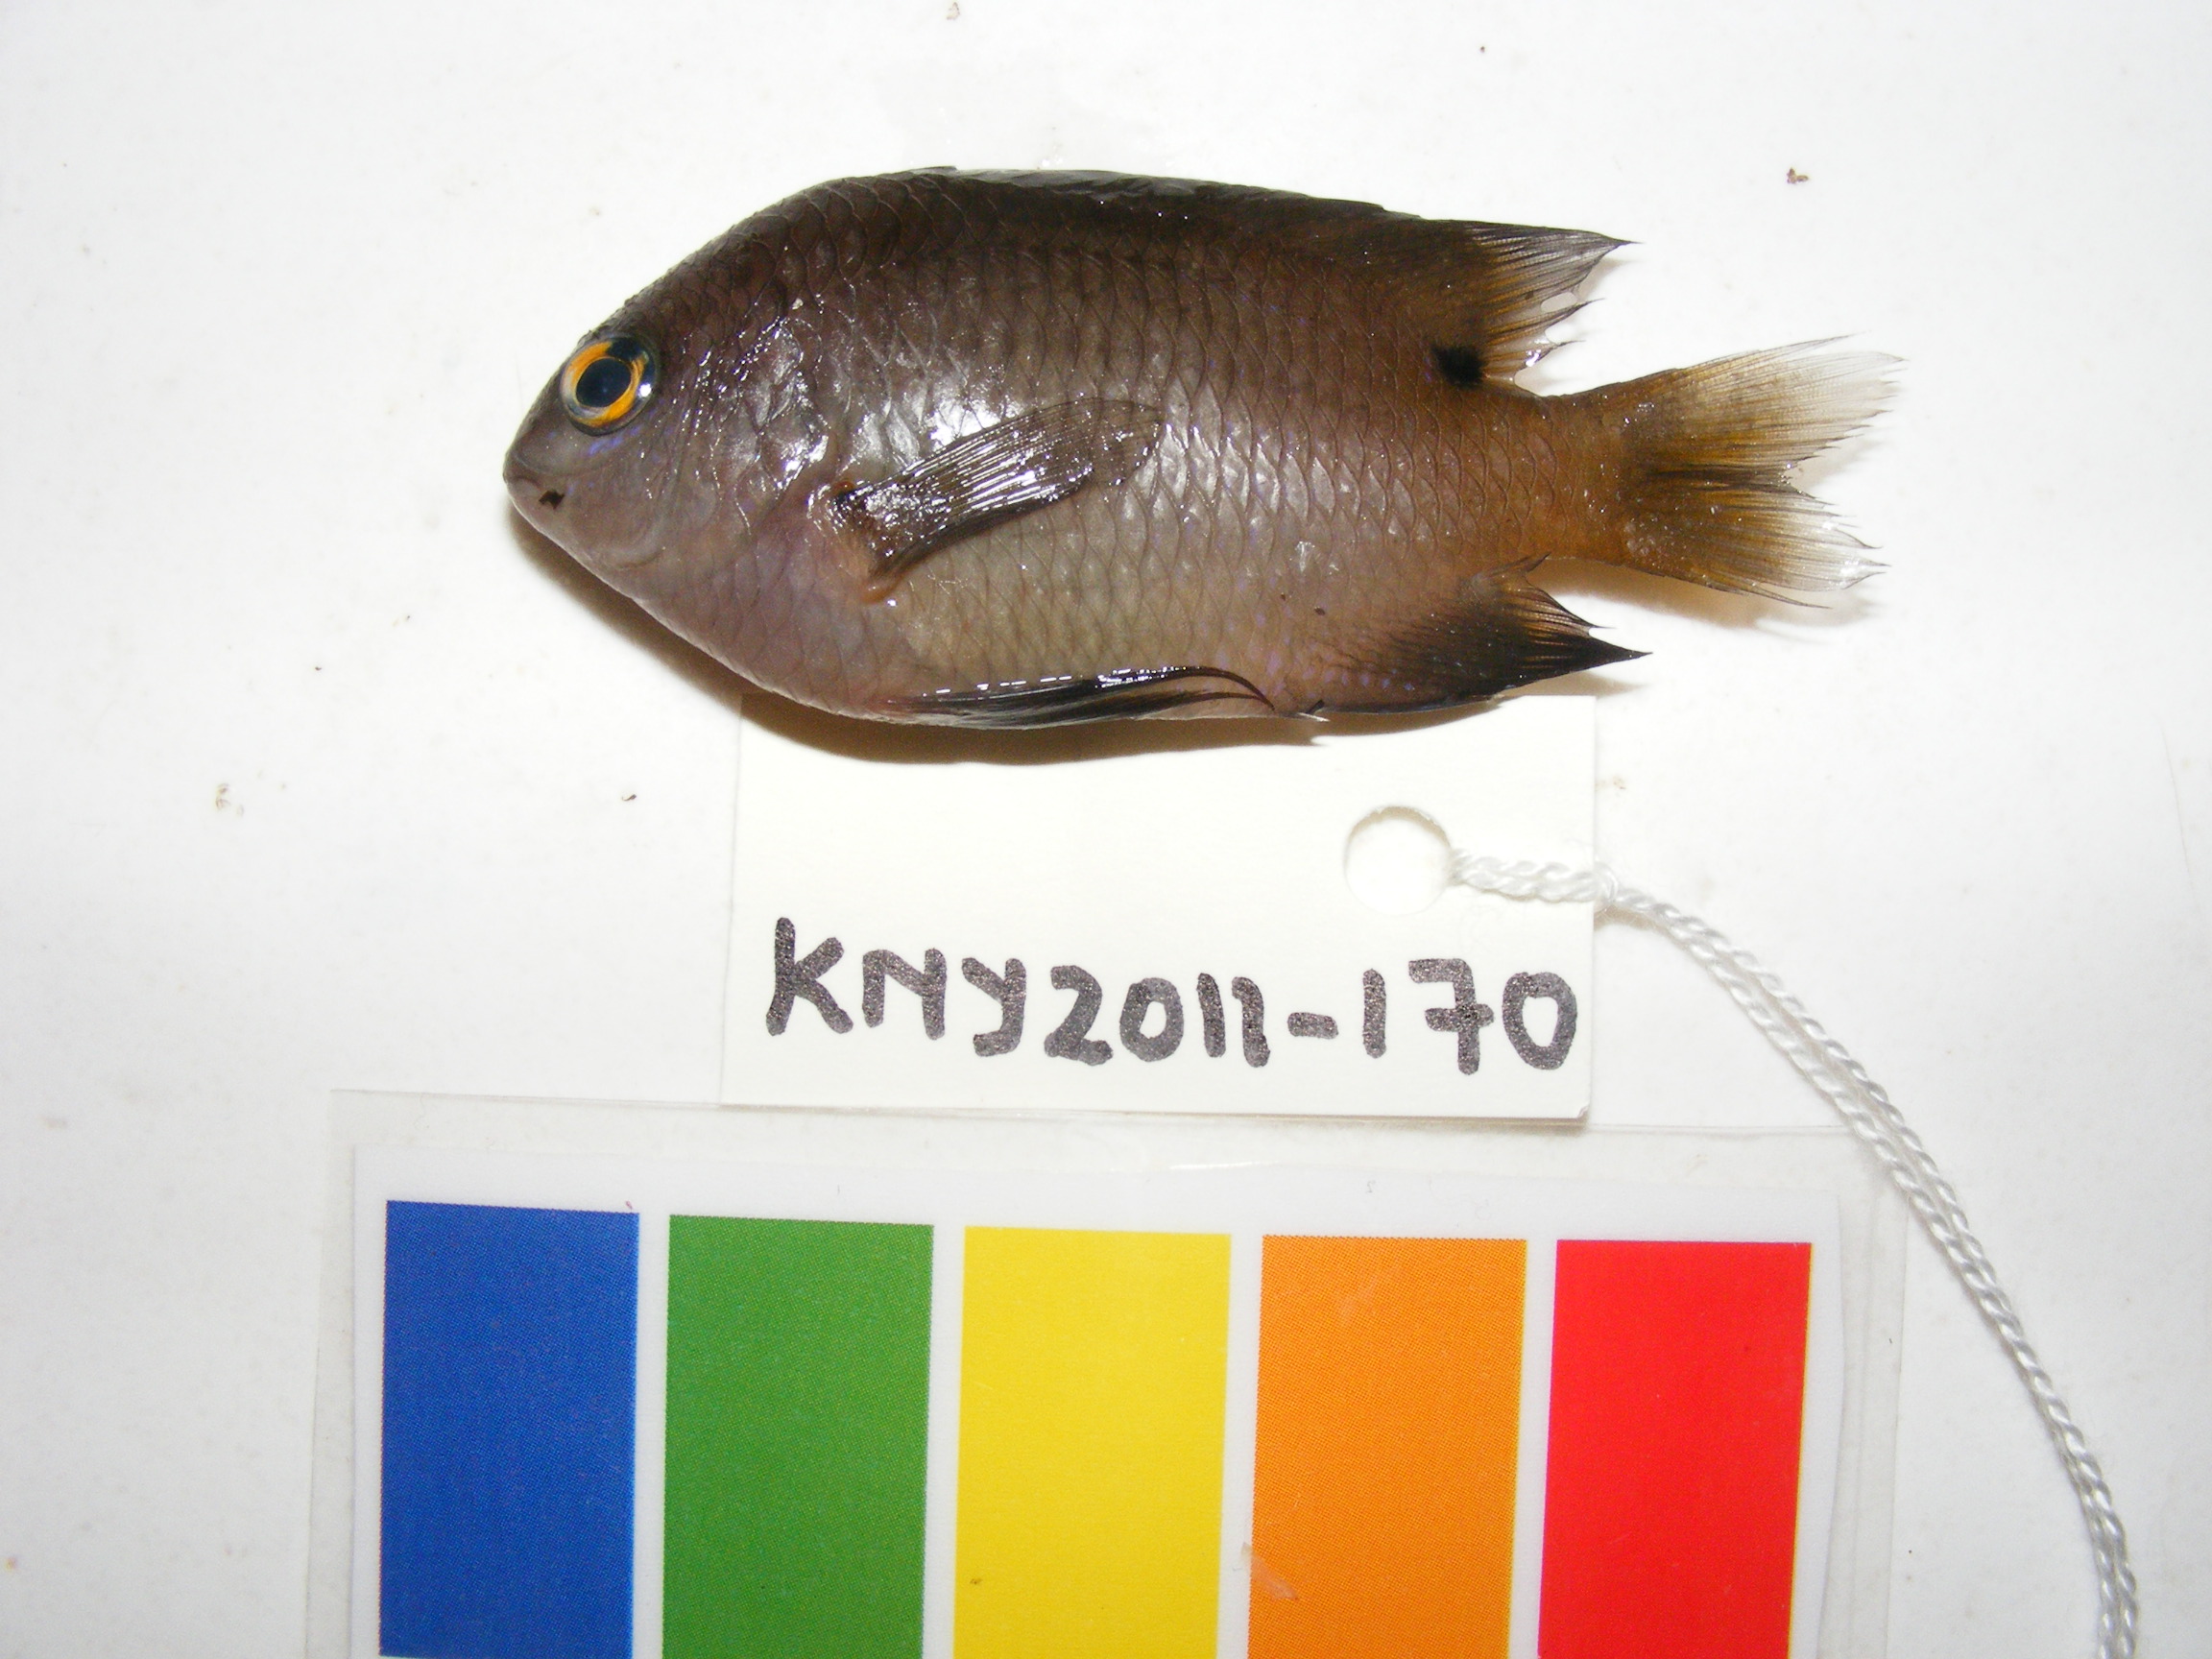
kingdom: Animalia
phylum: Chordata
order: Perciformes
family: Pomacentridae
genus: Stegastes
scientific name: Stegastes nigricans
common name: Dusky gregory
